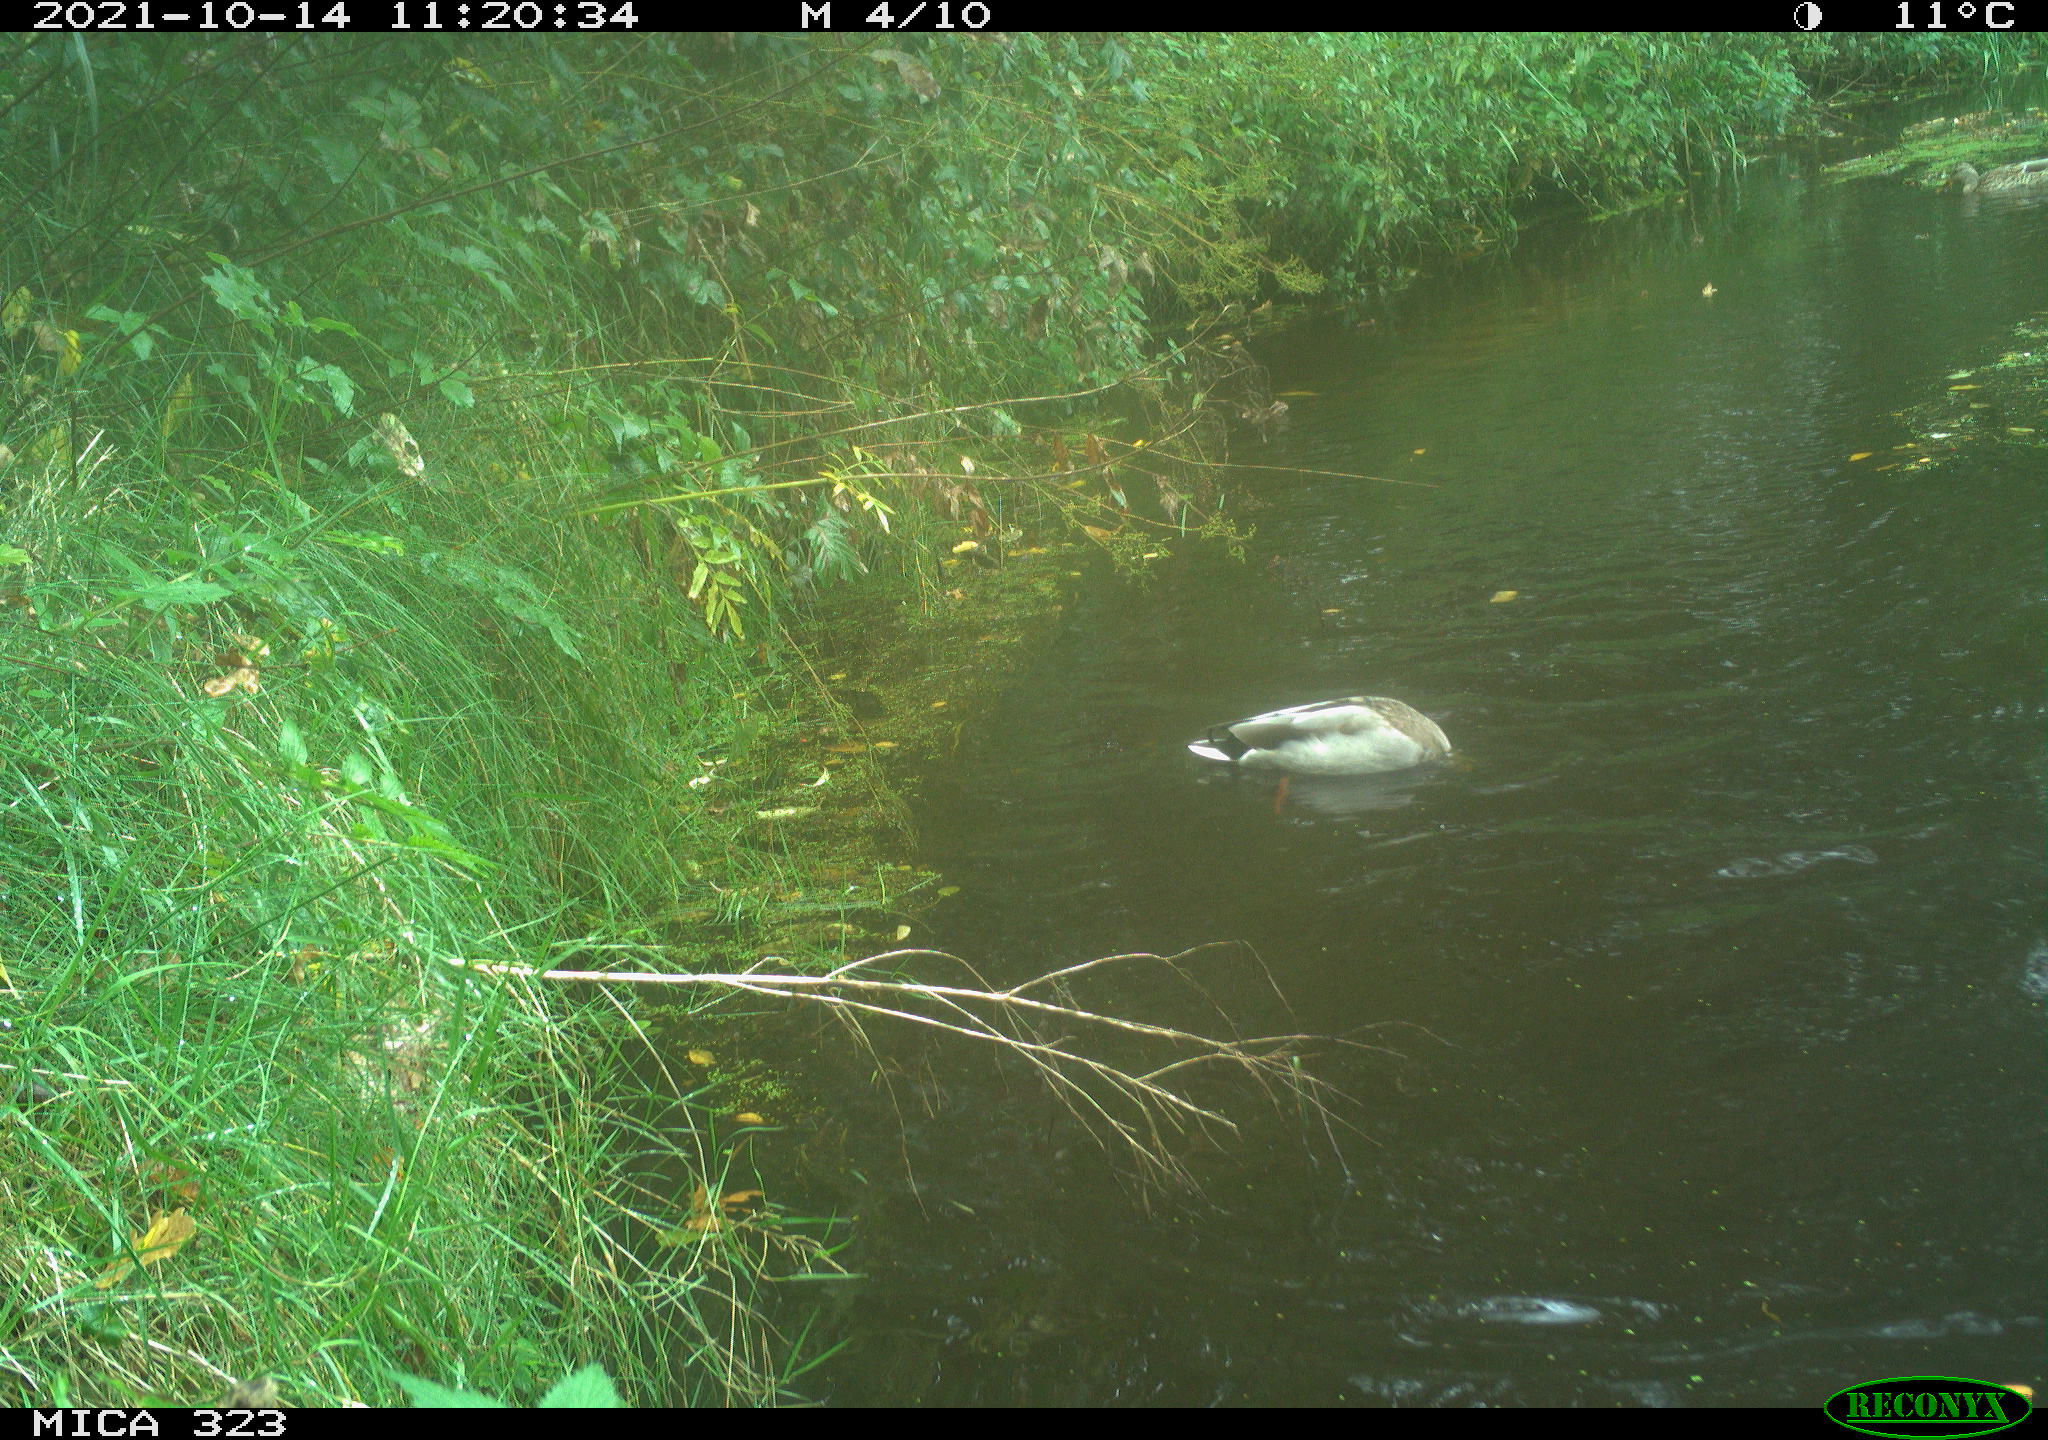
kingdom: Animalia
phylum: Chordata
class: Aves
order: Anseriformes
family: Anatidae
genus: Anas
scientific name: Anas platyrhynchos
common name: Mallard
